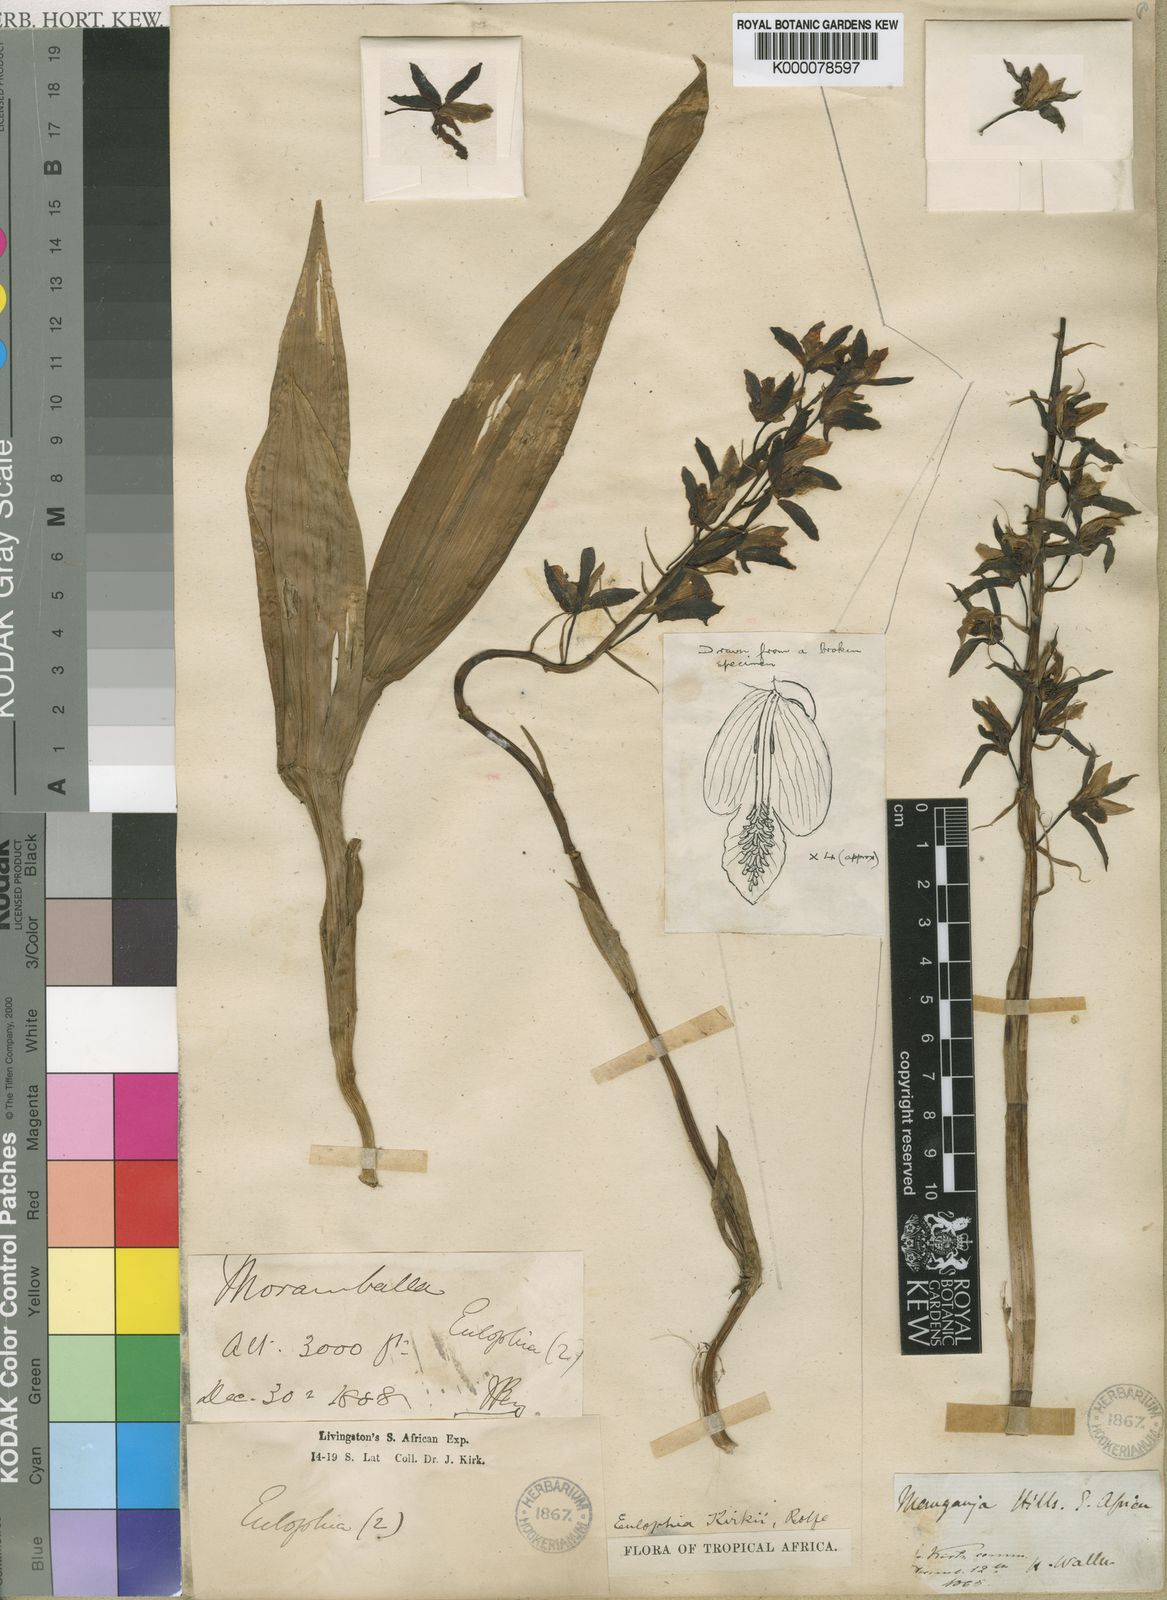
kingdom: Plantae
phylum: Tracheophyta
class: Liliopsida
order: Asparagales
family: Orchidaceae
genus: Eulophia
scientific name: Eulophia stachyodes
